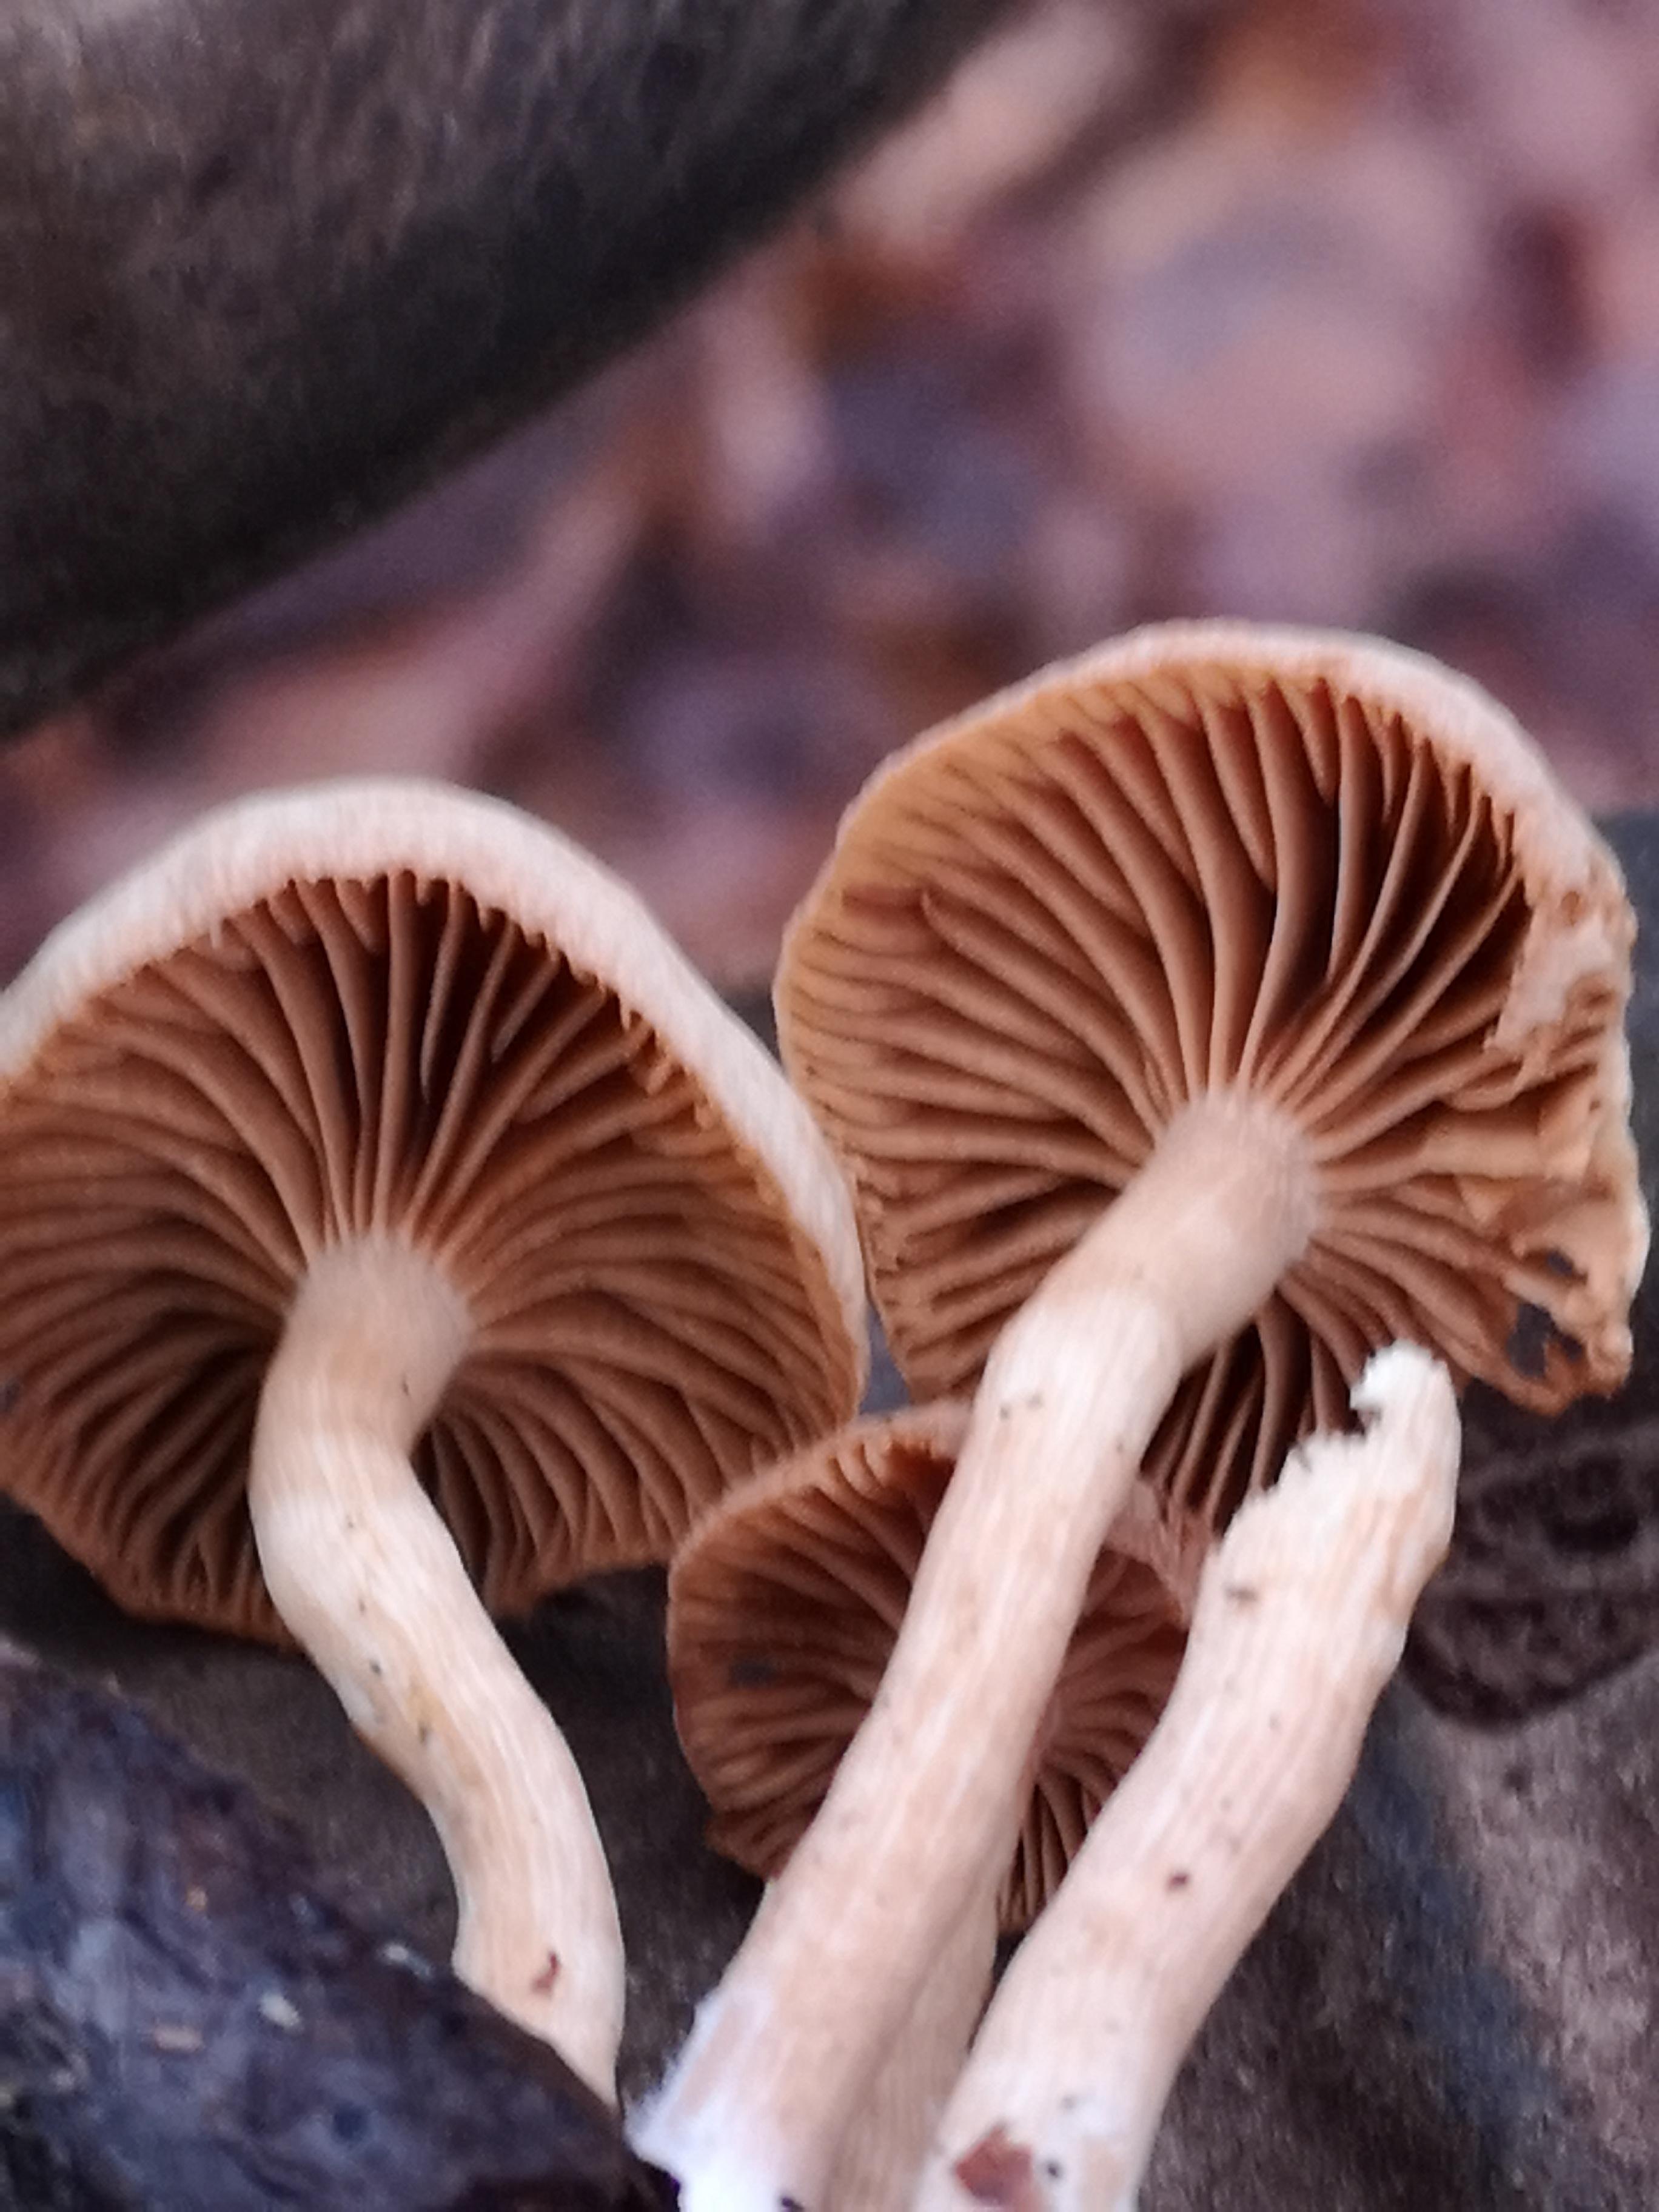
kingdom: Fungi
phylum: Basidiomycota
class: Agaricomycetes
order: Agaricales
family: Tubariaceae
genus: Tubaria
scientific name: Tubaria furfuracea
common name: kliddet fnughat
